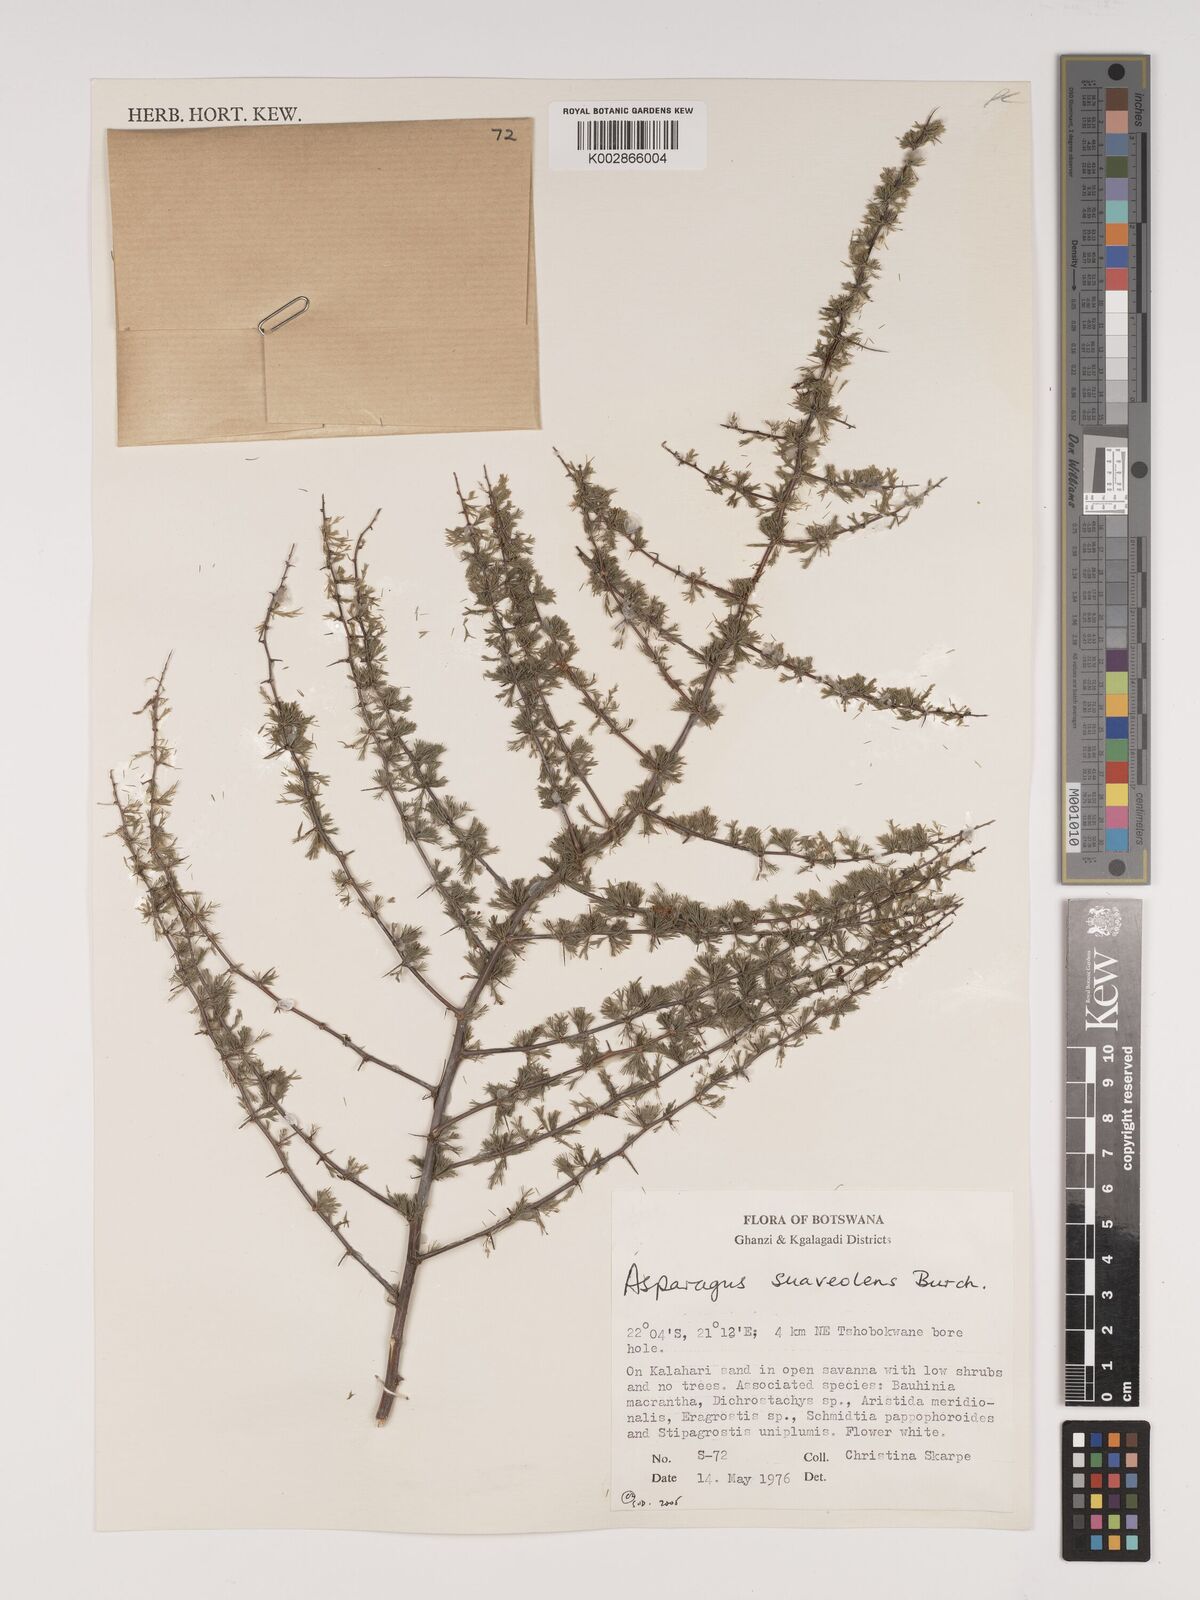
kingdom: Plantae
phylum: Tracheophyta
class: Liliopsida
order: Asparagales
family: Asparagaceae
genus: Asparagus
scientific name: Asparagus suaveolens
